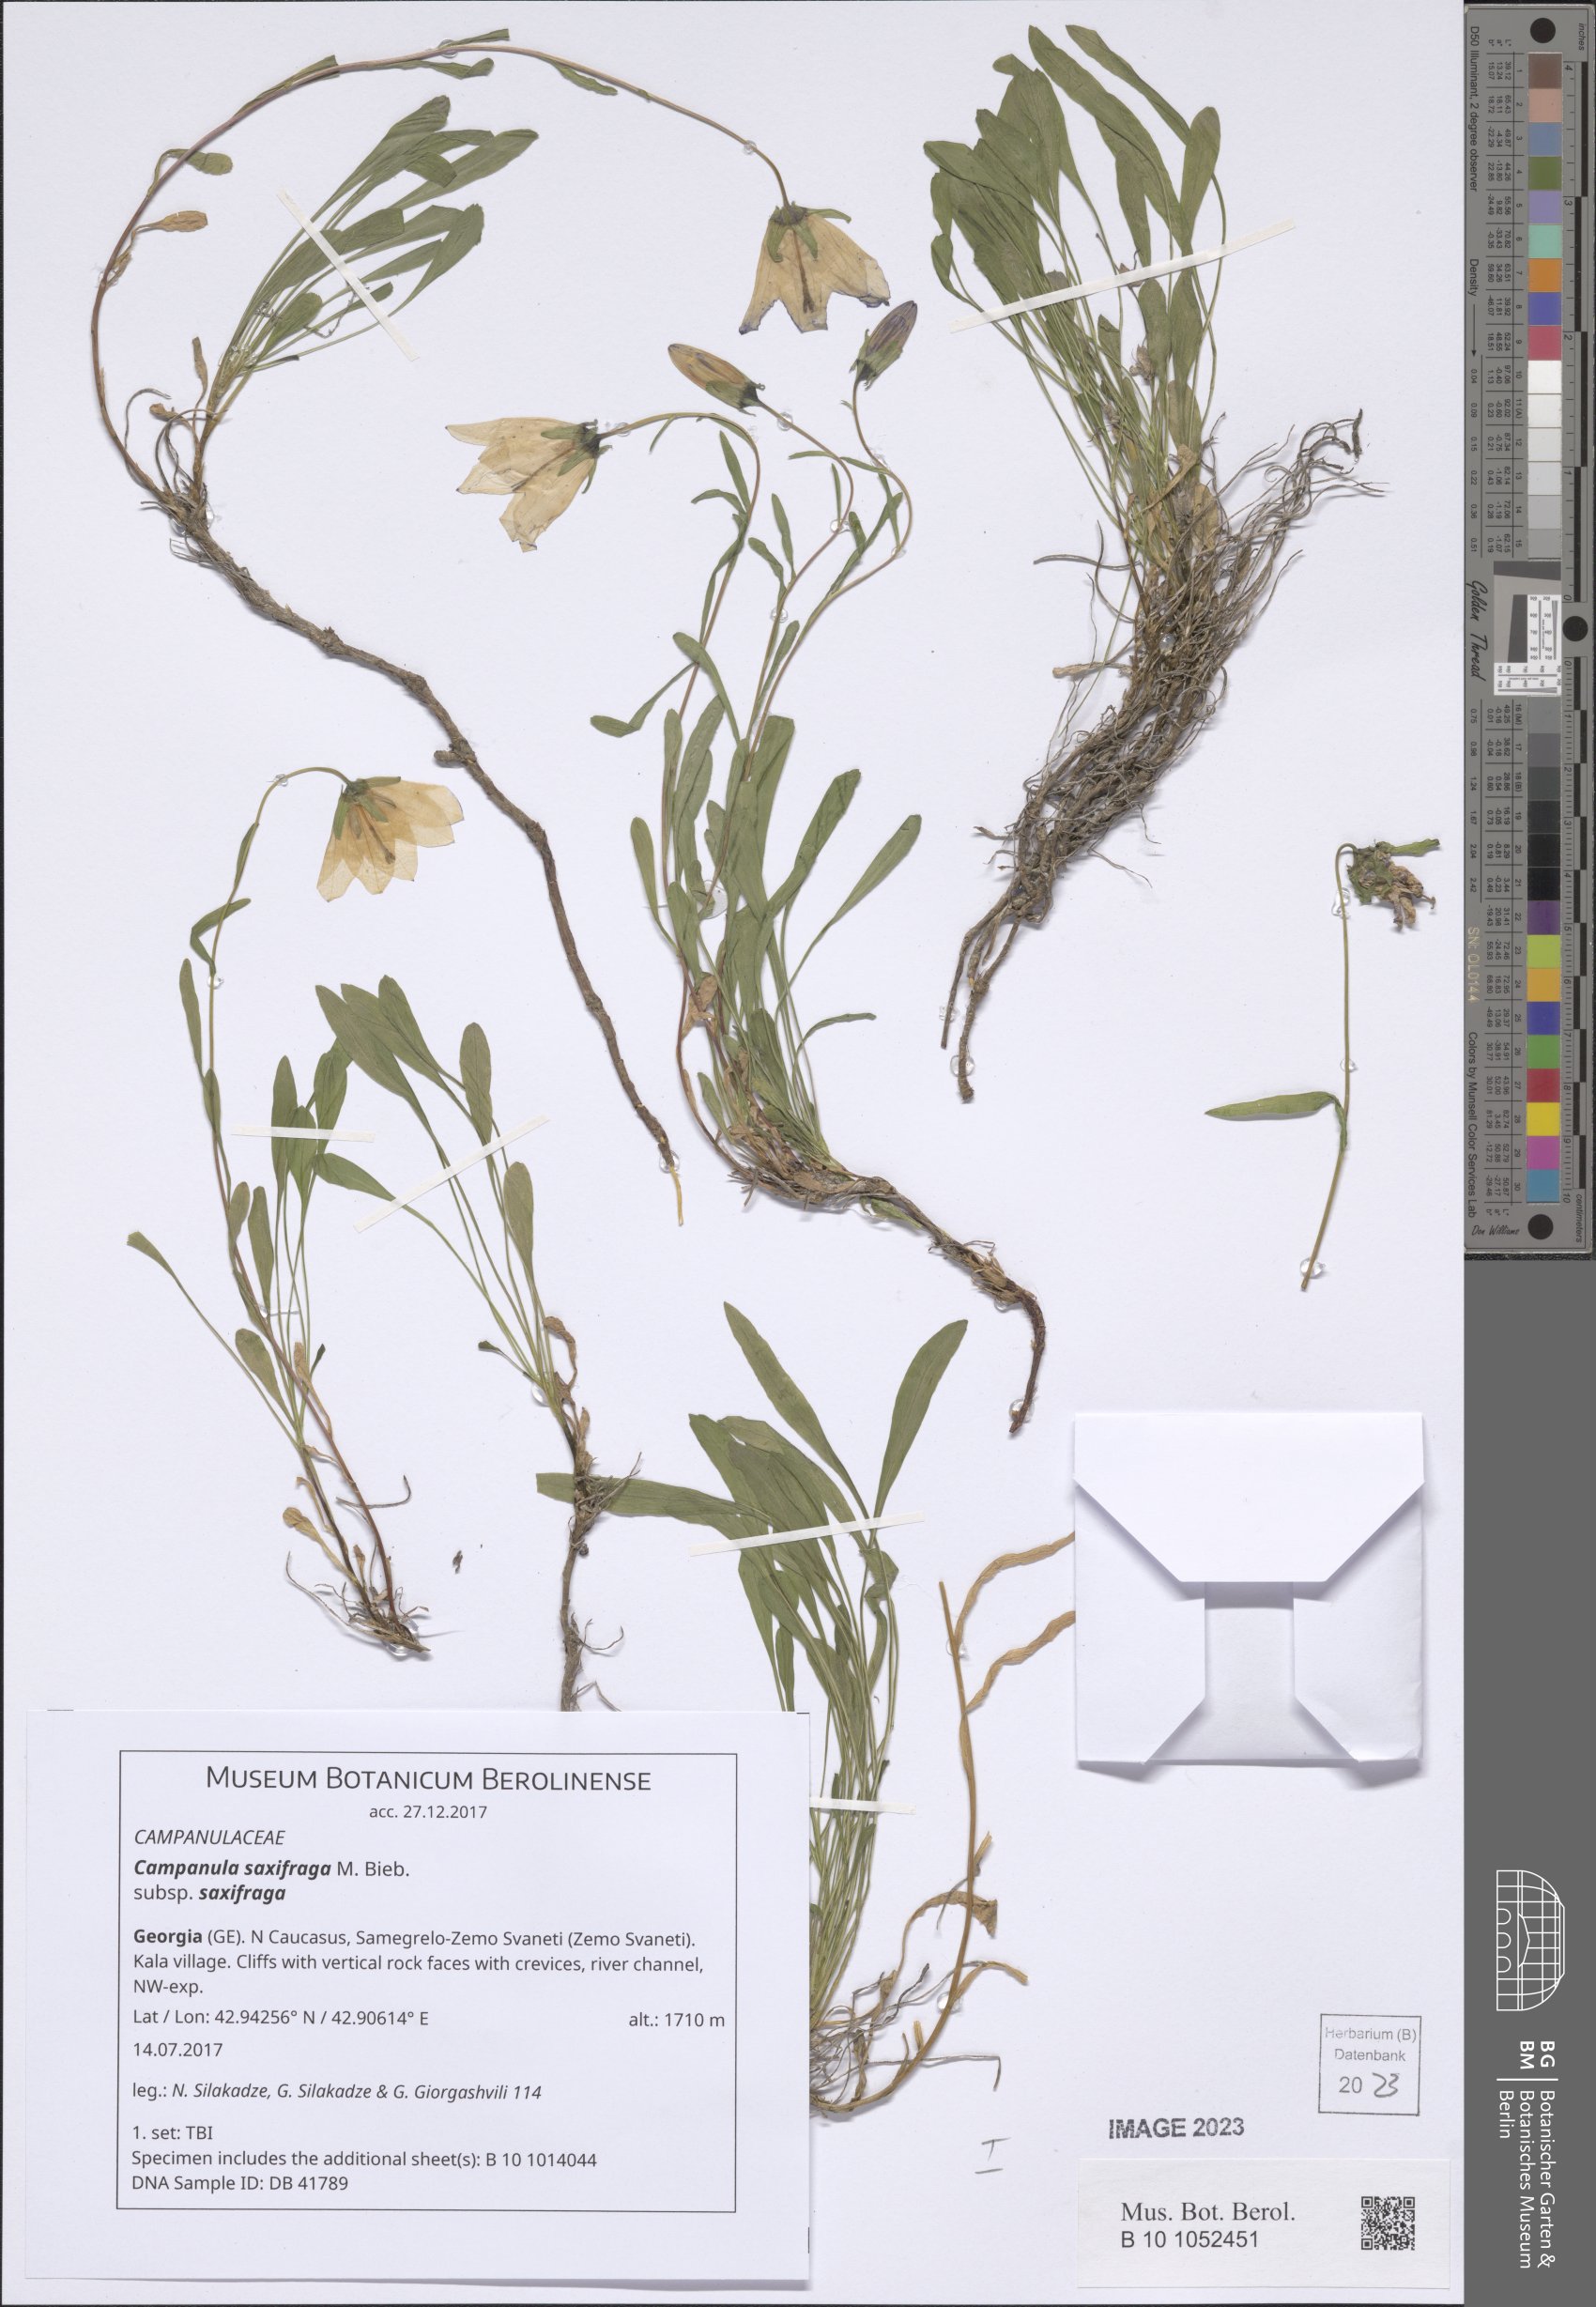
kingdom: Plantae
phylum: Tracheophyta
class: Magnoliopsida
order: Asterales
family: Campanulaceae
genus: Campanula
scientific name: Campanula saxifraga
